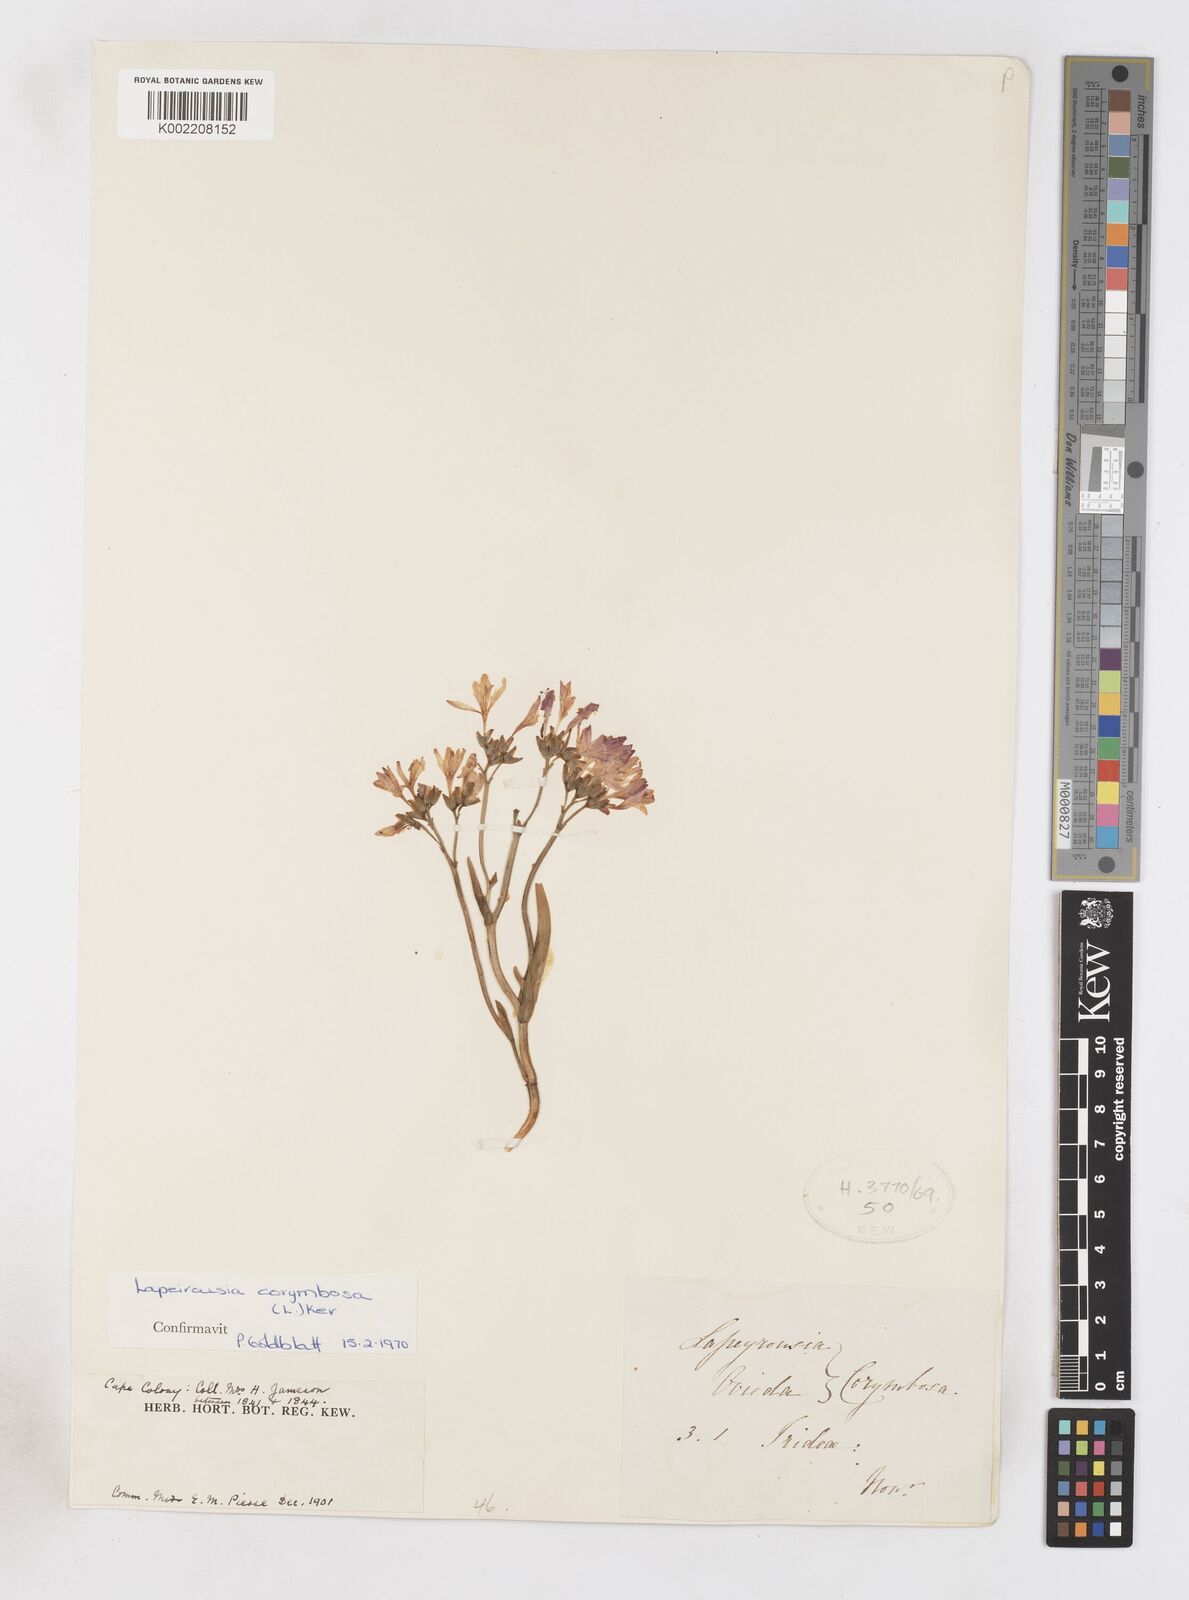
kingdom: Plantae
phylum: Tracheophyta
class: Liliopsida
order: Asparagales
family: Iridaceae
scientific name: Iridaceae
